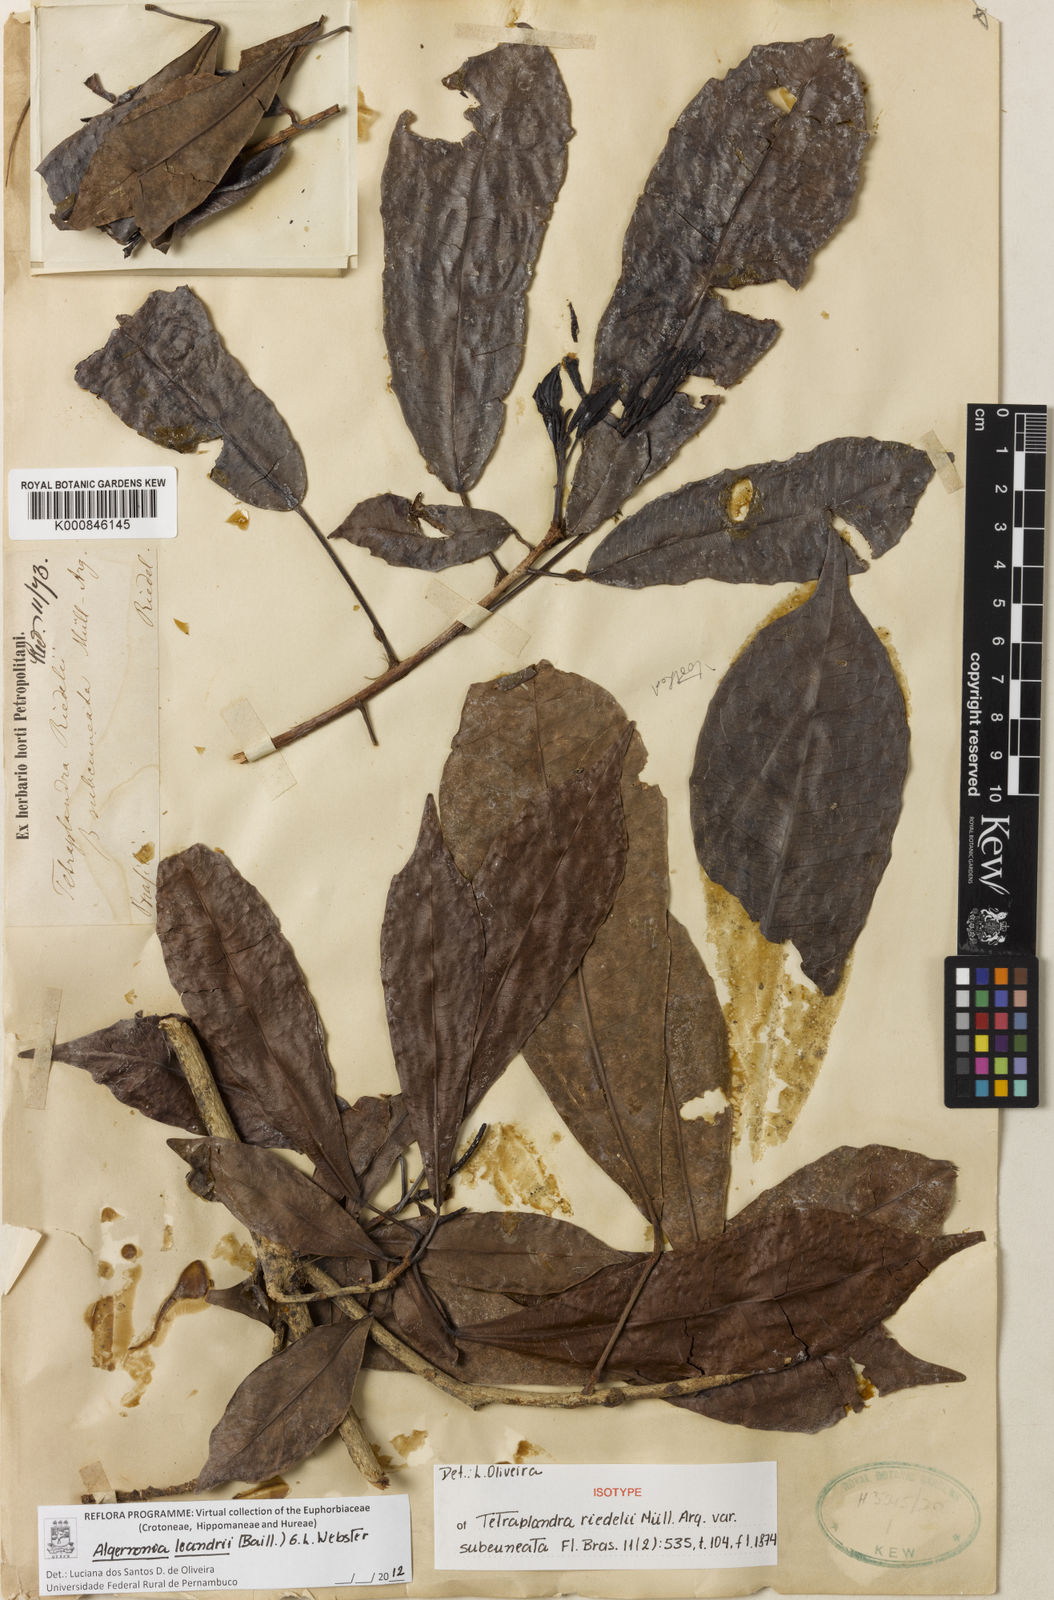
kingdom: Plantae
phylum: Tracheophyta
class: Magnoliopsida
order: Malpighiales
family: Euphorbiaceae
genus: Algernonia
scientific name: Algernonia leandrii
